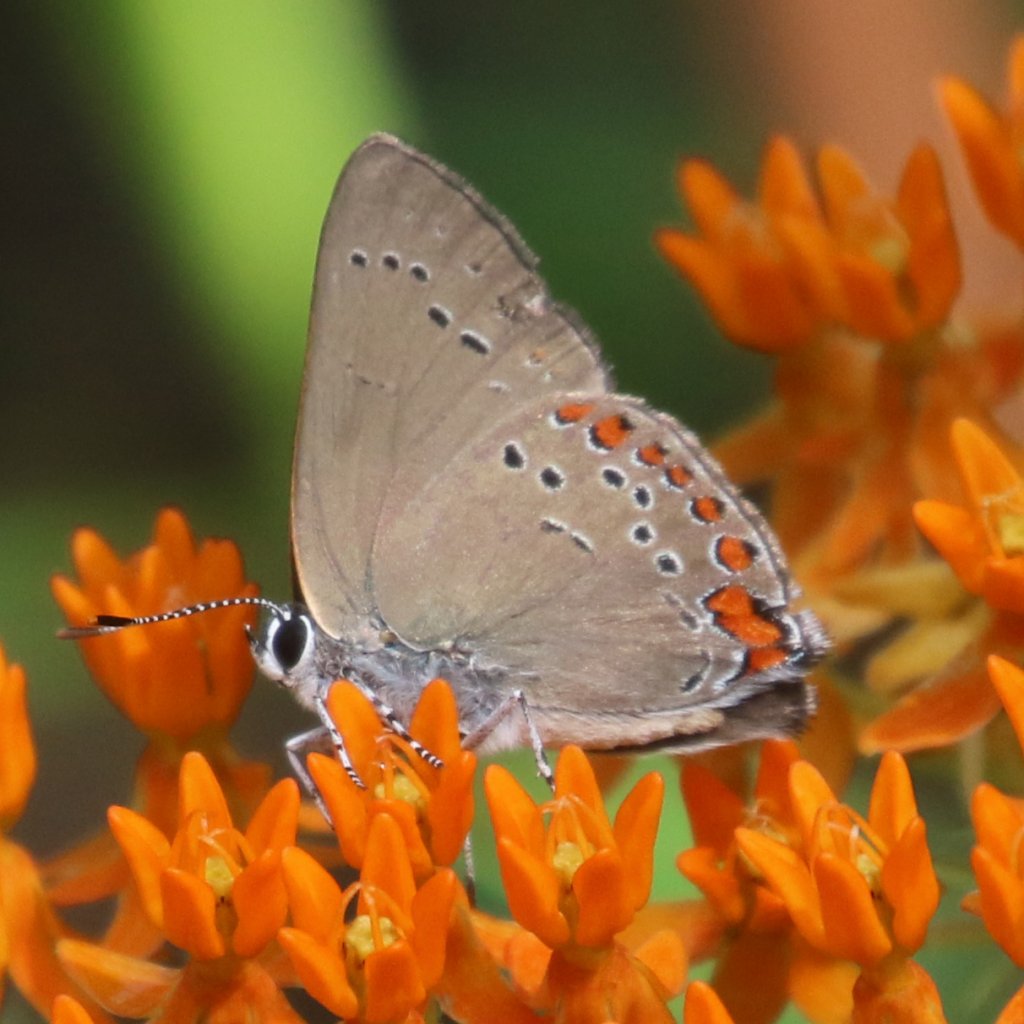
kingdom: Animalia
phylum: Arthropoda
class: Insecta
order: Lepidoptera
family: Lycaenidae
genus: Harkenclenus
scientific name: Harkenclenus titus
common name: Coral Hairstreak
